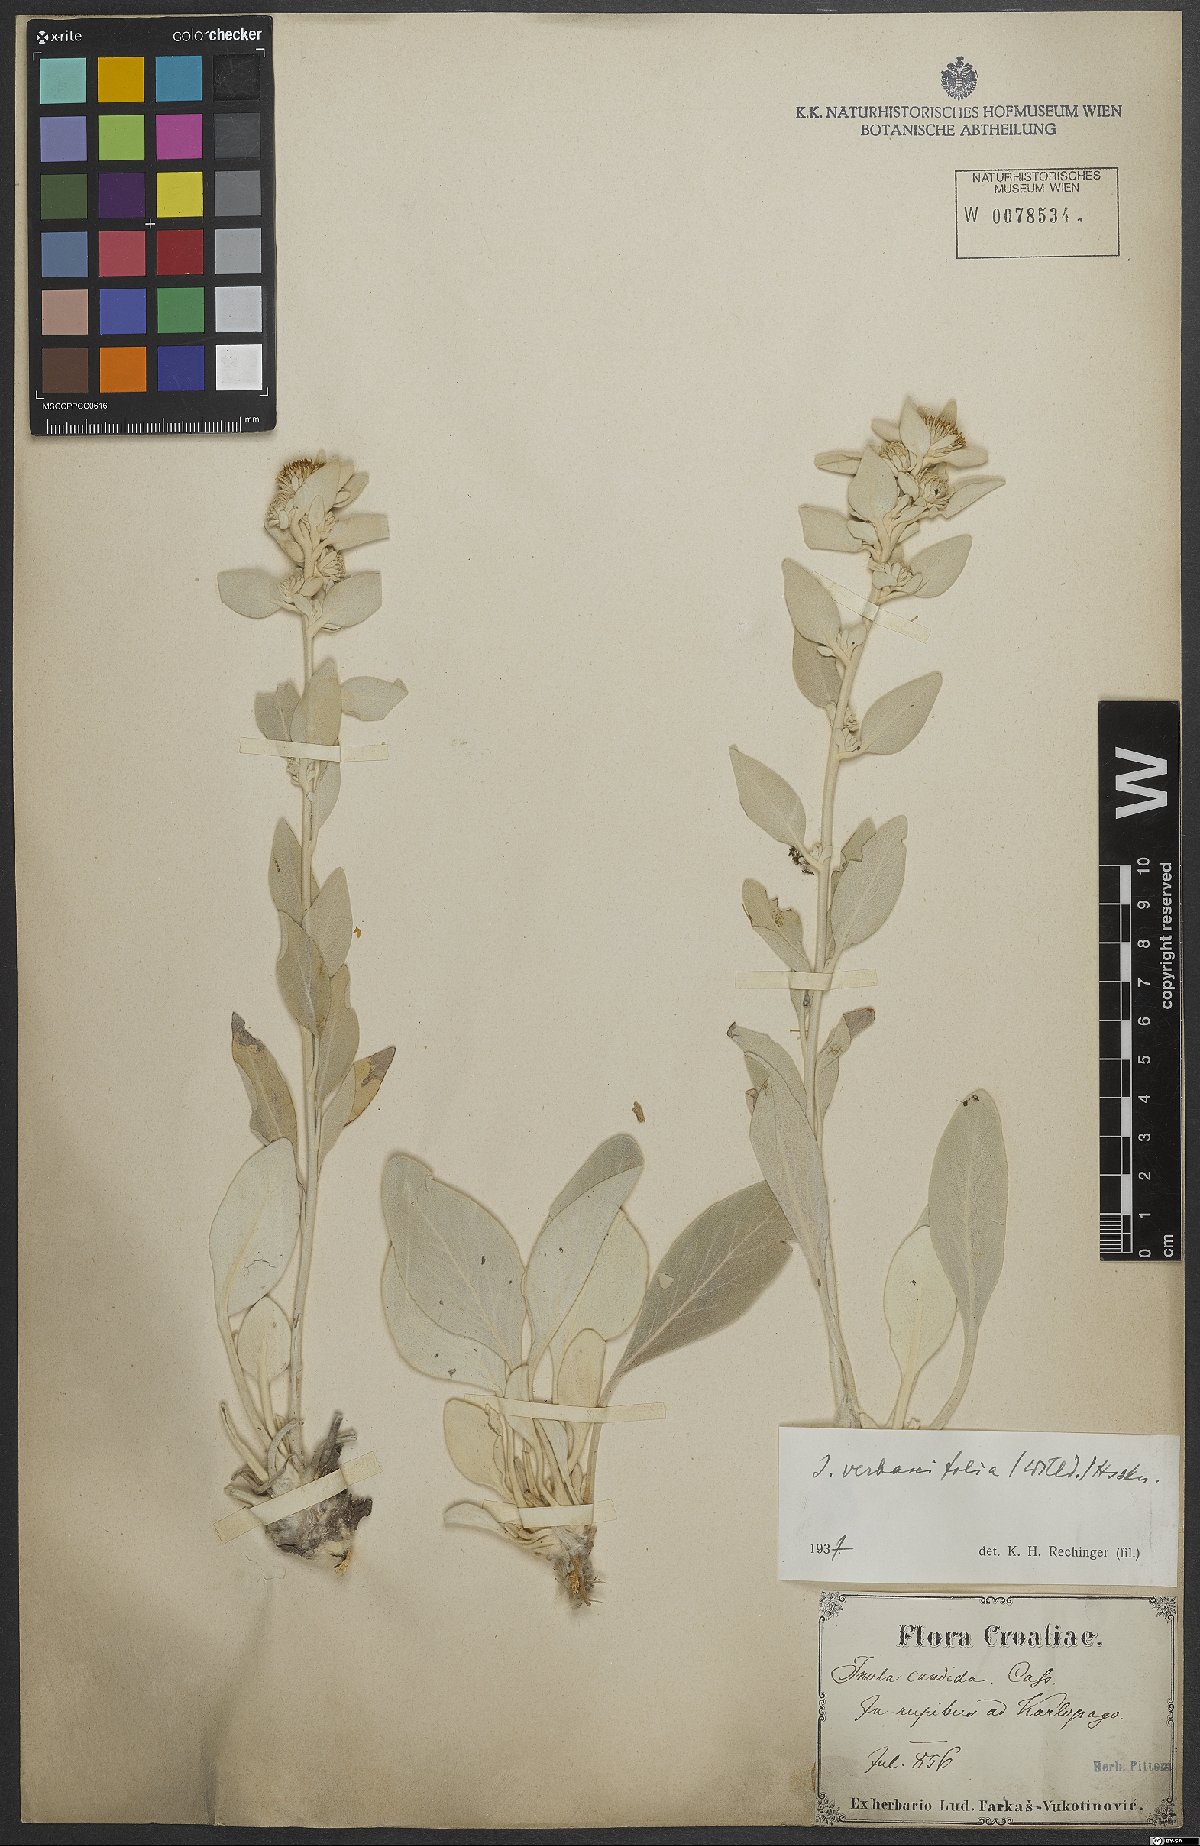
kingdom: Plantae
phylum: Tracheophyta
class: Magnoliopsida
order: Asterales
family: Asteraceae
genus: Pentanema
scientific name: Pentanema verbascifolium
